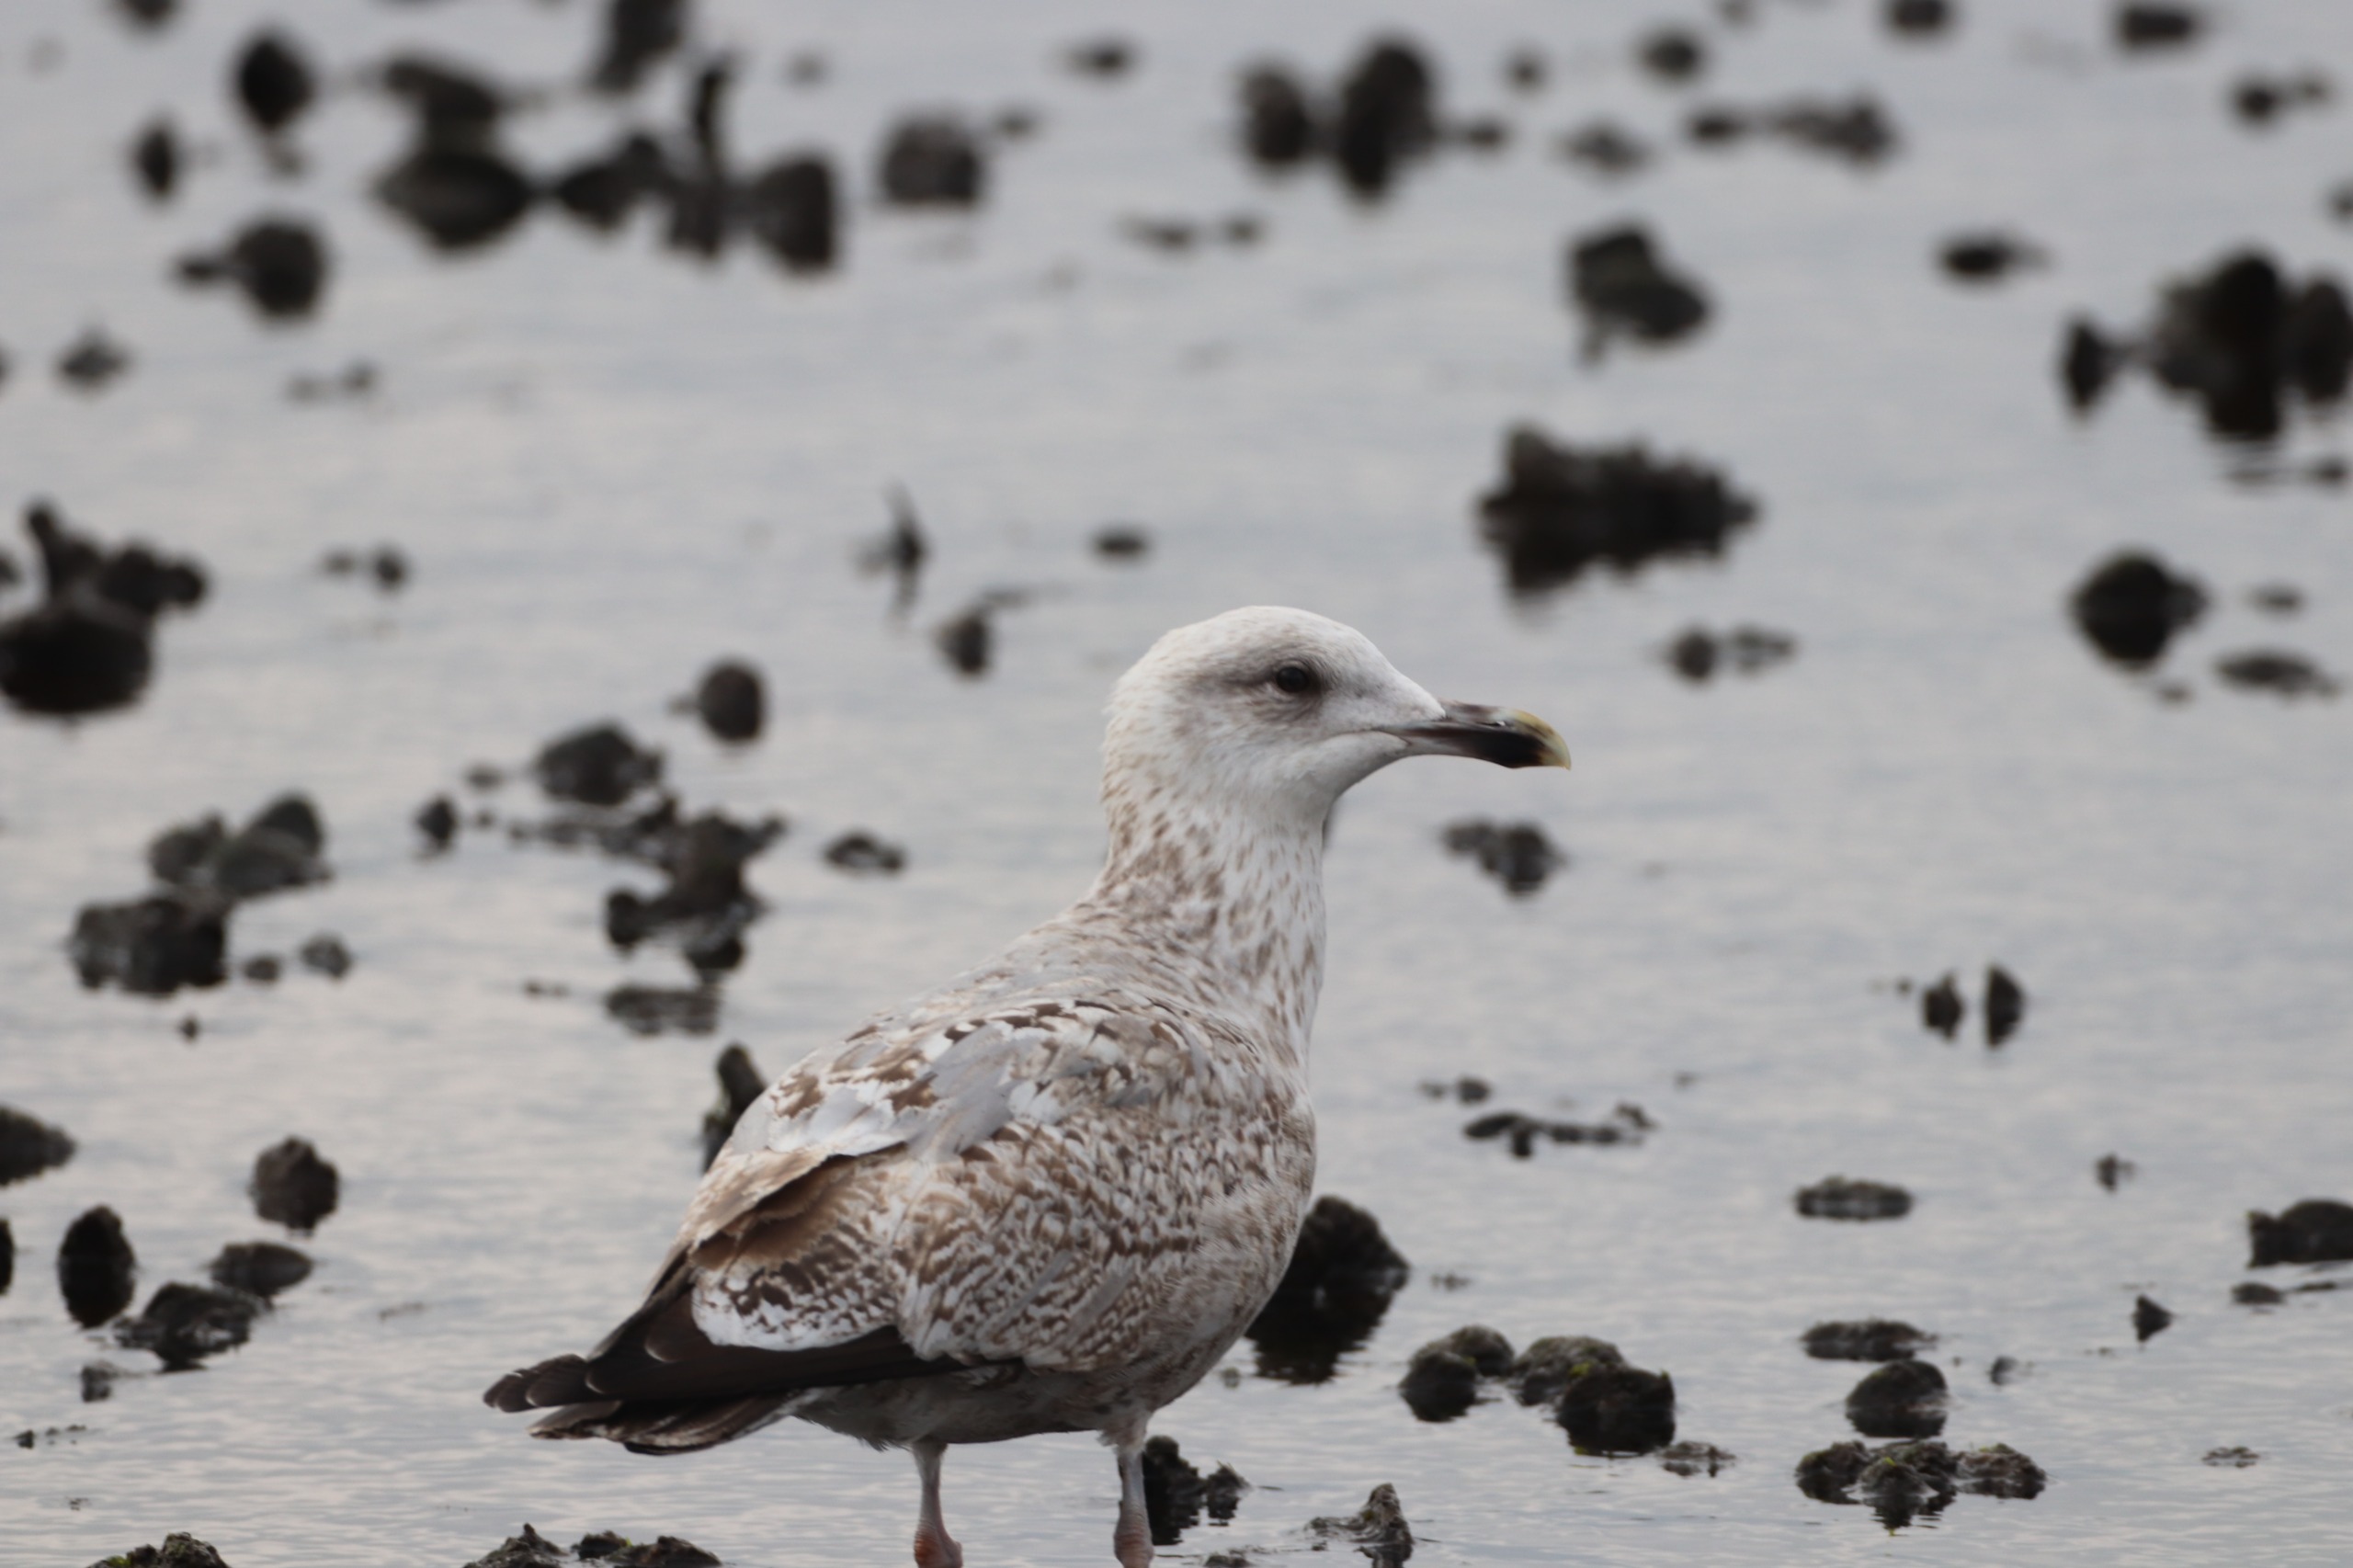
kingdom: Animalia
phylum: Chordata
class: Aves
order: Charadriiformes
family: Laridae
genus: Larus
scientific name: Larus argentatus
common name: Sølvmåge
